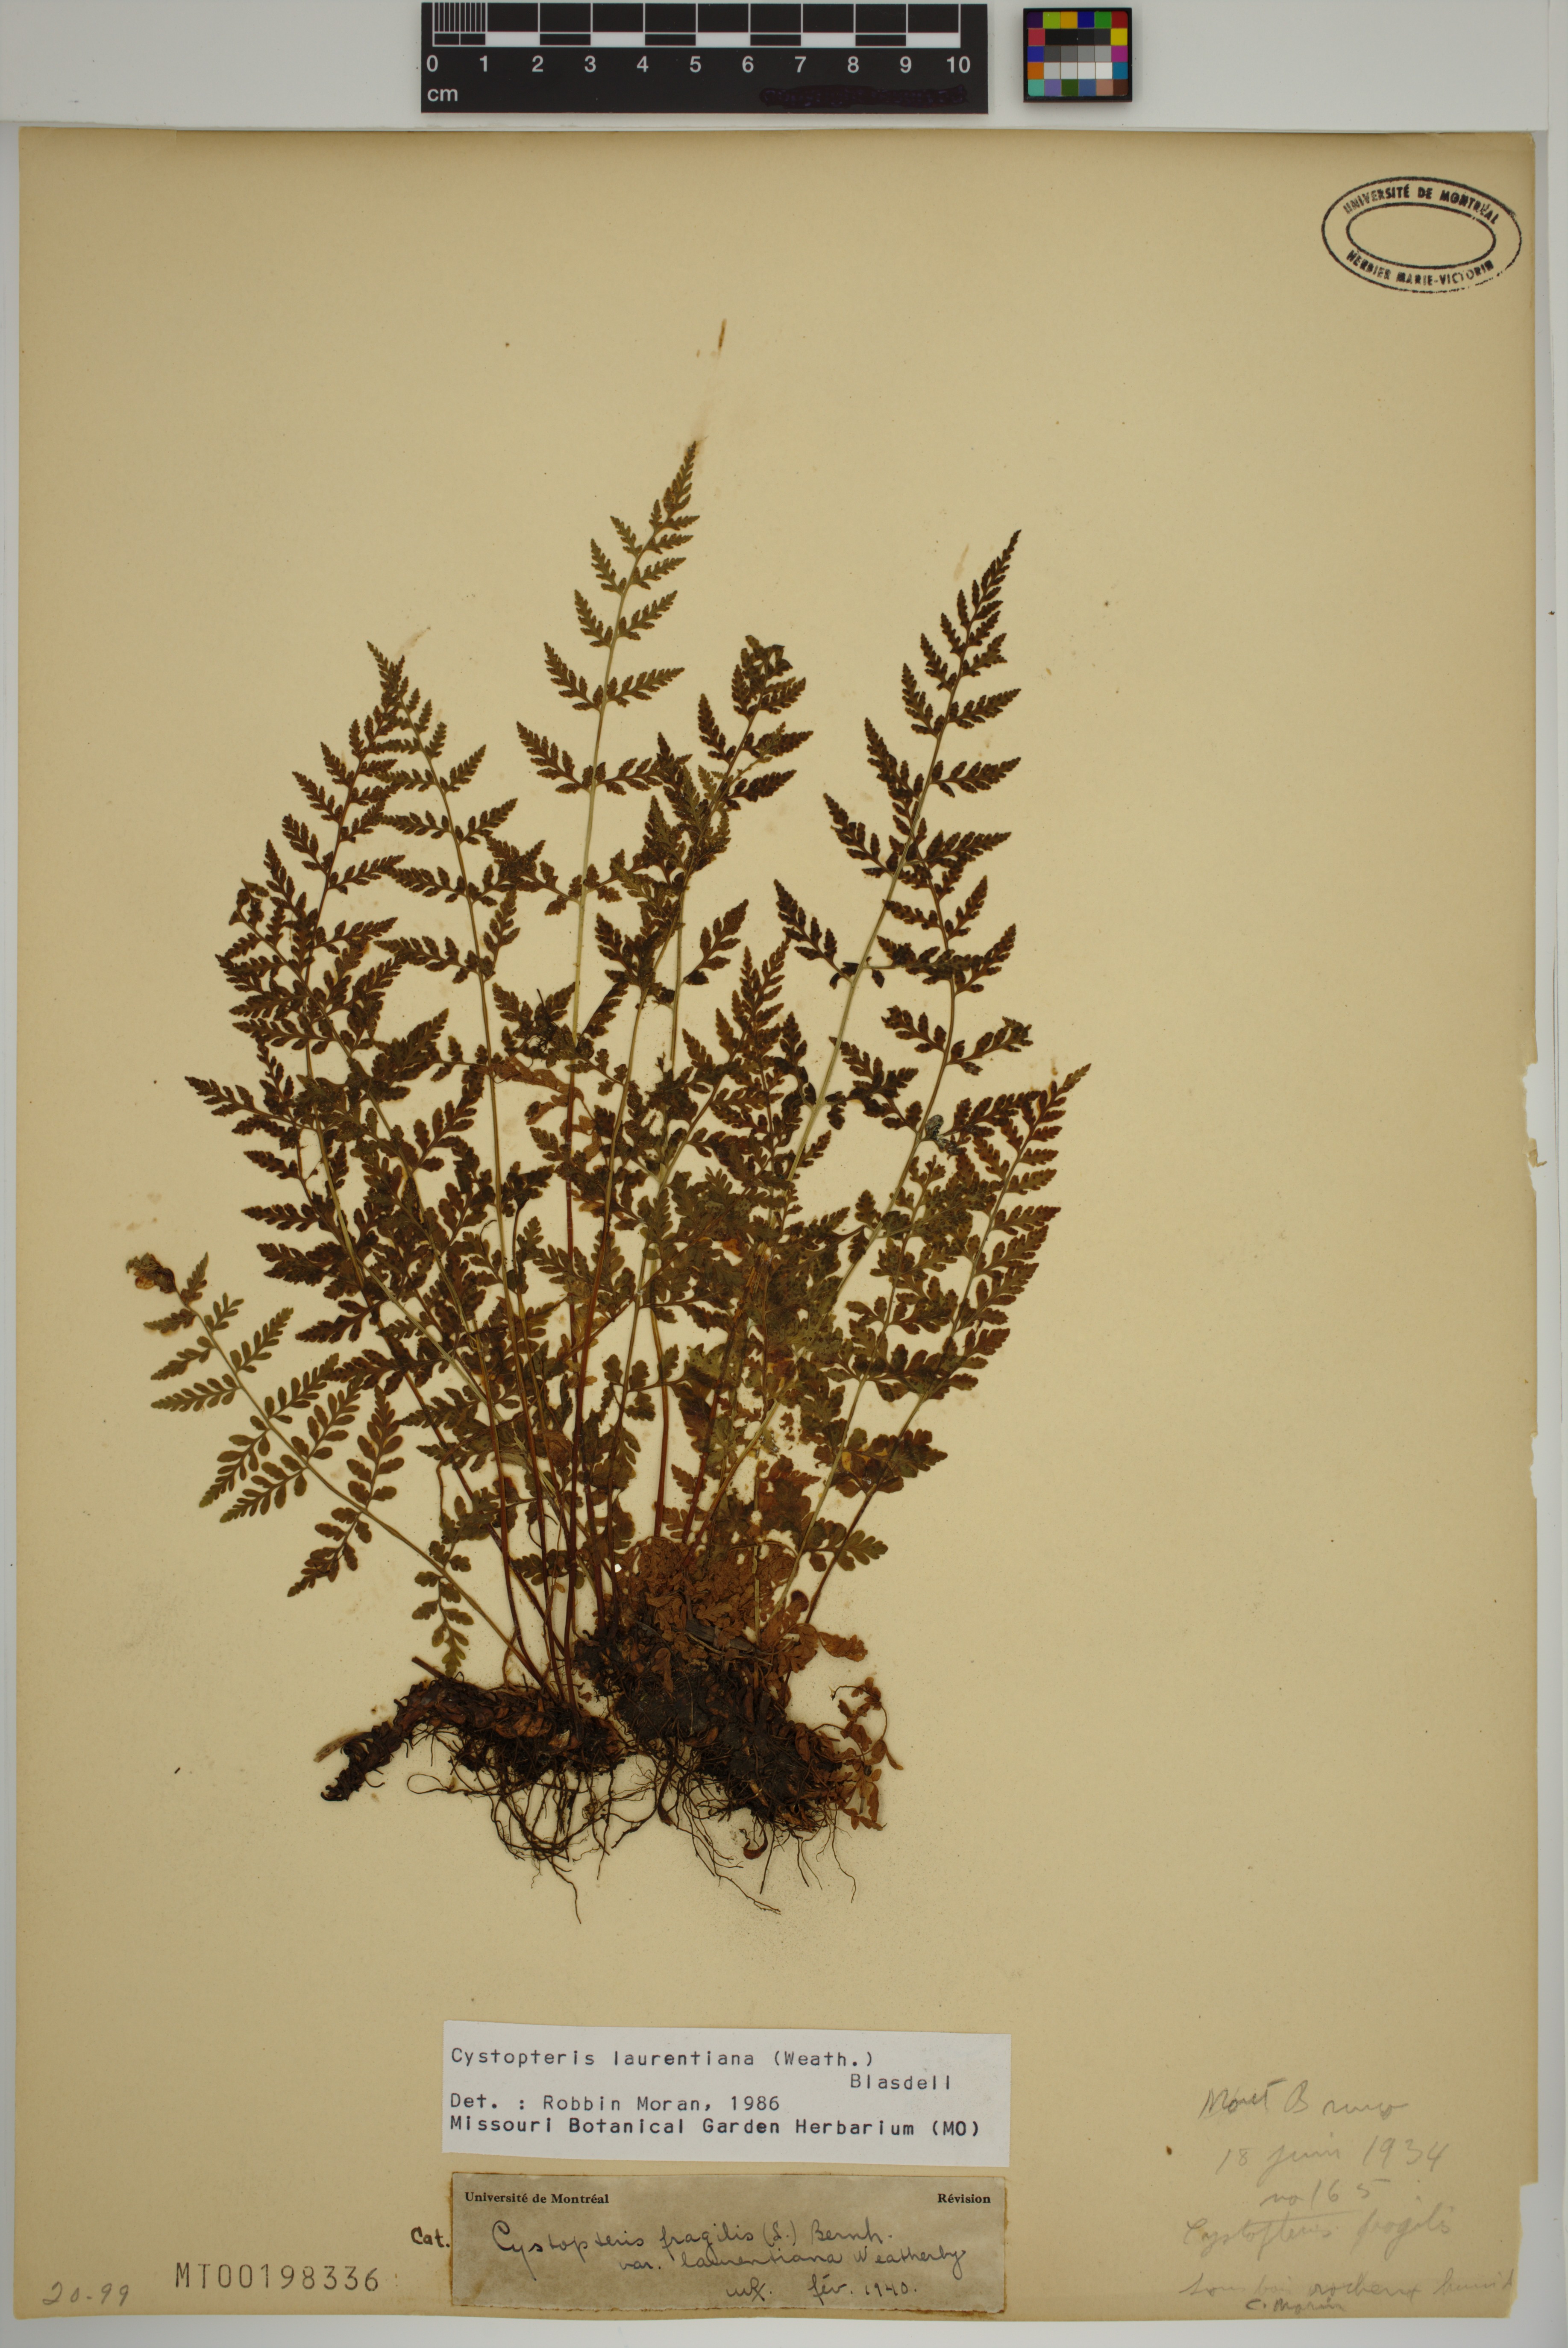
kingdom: Plantae
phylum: Tracheophyta
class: Polypodiopsida
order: Polypodiales
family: Cystopteridaceae
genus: Cystopteris
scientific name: Cystopteris laurentiana
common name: Blasdell's laurentian bladder fern
